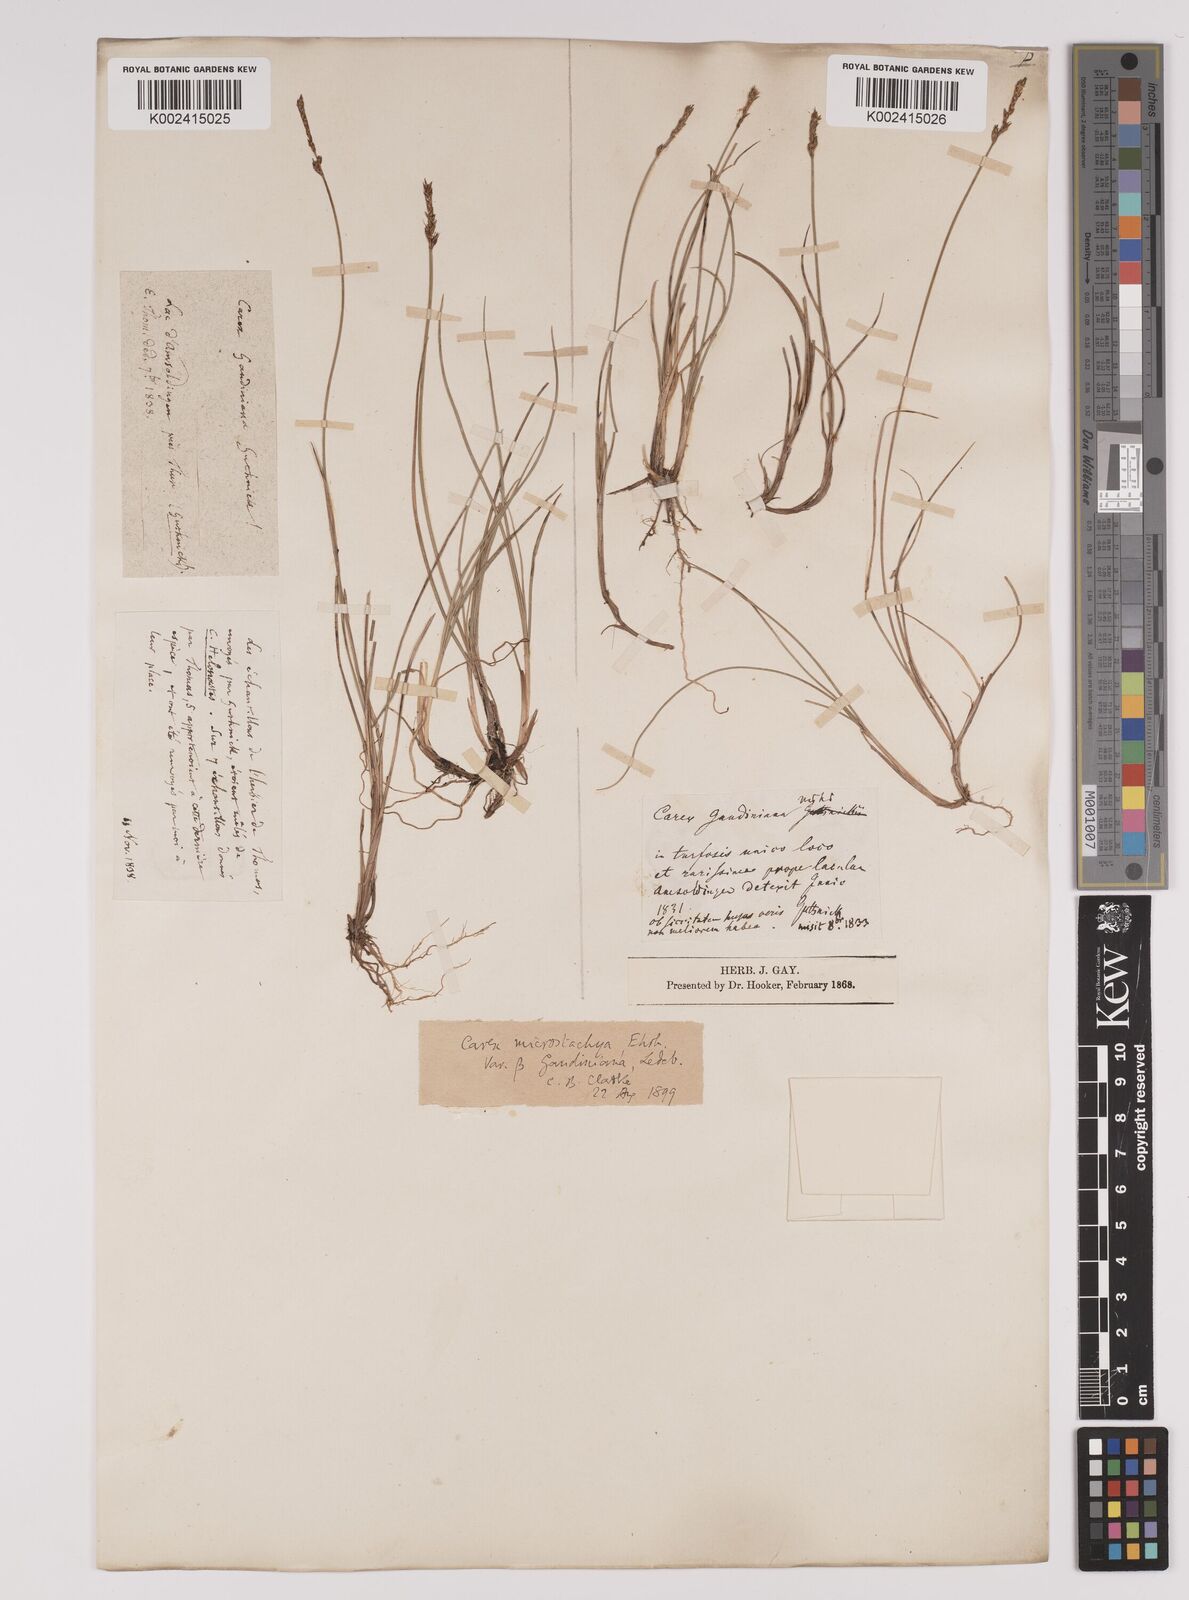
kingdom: Plantae
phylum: Tracheophyta
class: Liliopsida
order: Poales
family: Cyperaceae
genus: Carex
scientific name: Carex dioica
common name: Dioecious sedge
